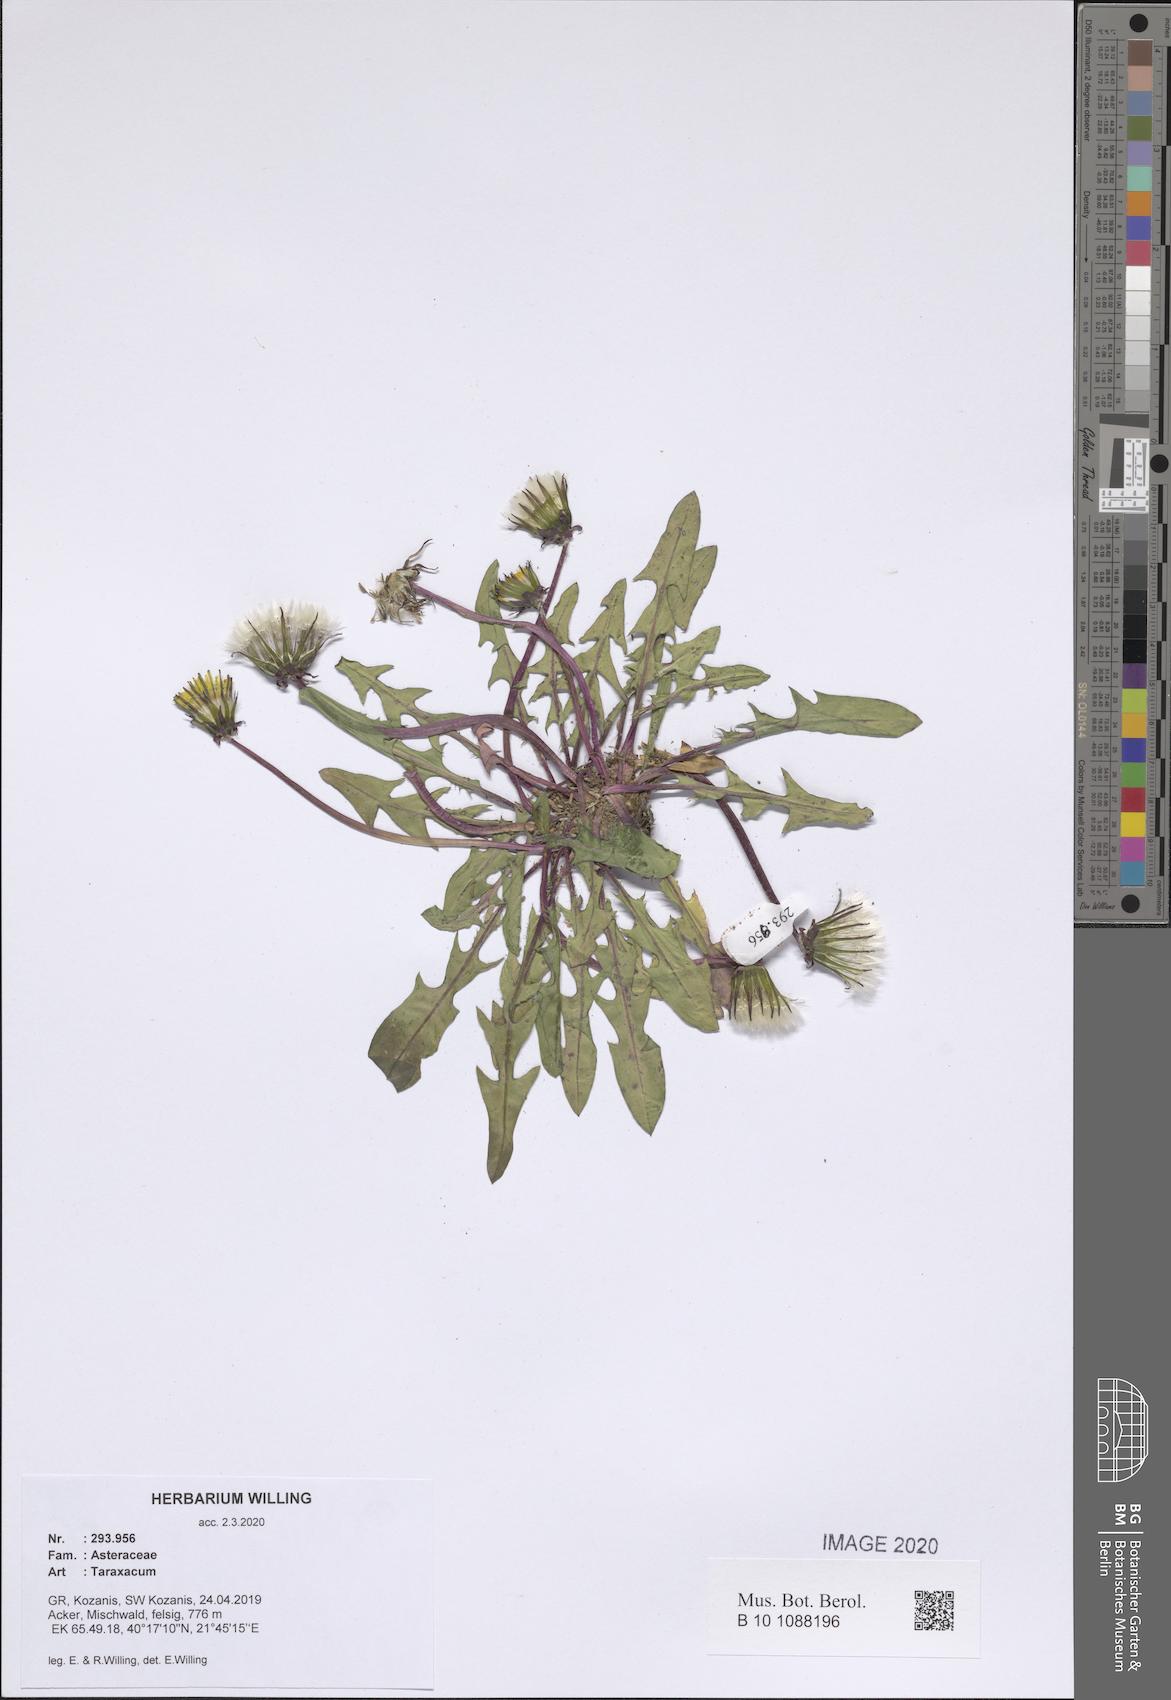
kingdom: Plantae
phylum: Tracheophyta
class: Magnoliopsida
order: Asterales
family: Asteraceae
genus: Taraxacum
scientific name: Taraxacum
